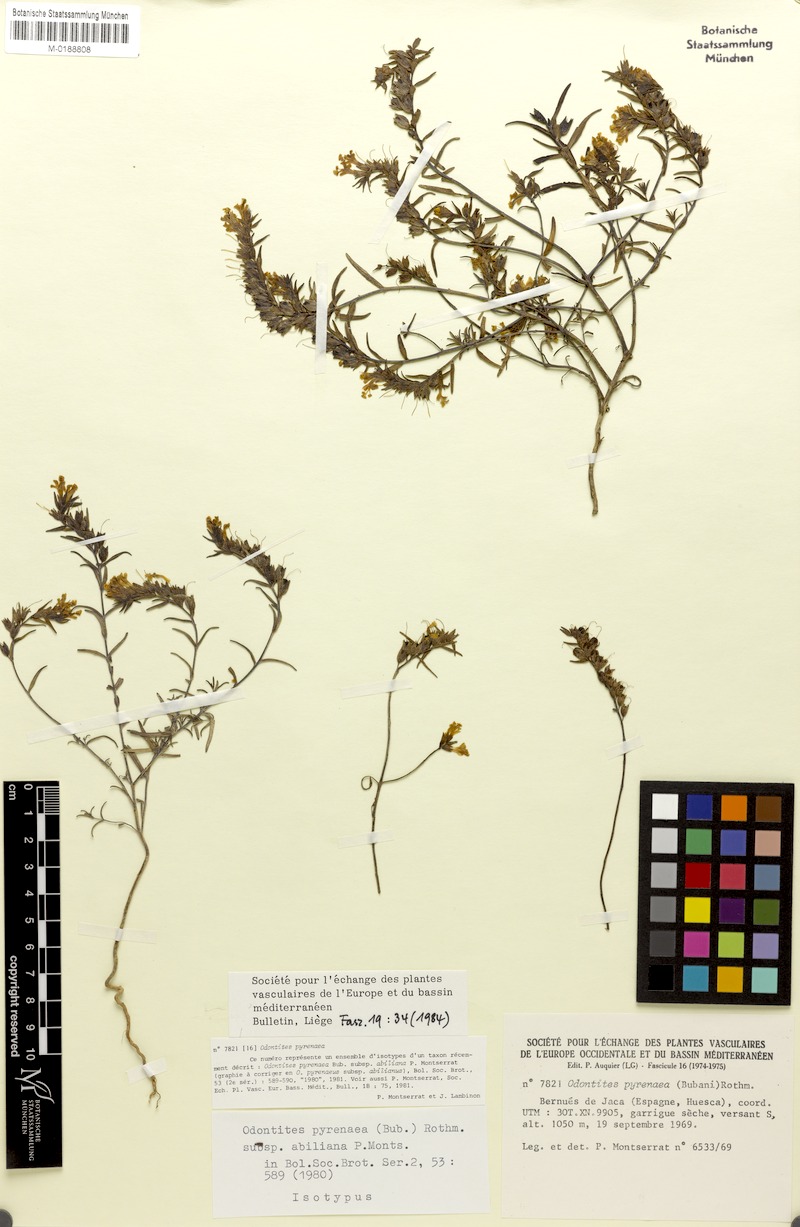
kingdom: Plantae
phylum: Tracheophyta
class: Magnoliopsida
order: Lamiales
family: Orobanchaceae
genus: Odontites
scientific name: Odontites pyrenaeus
